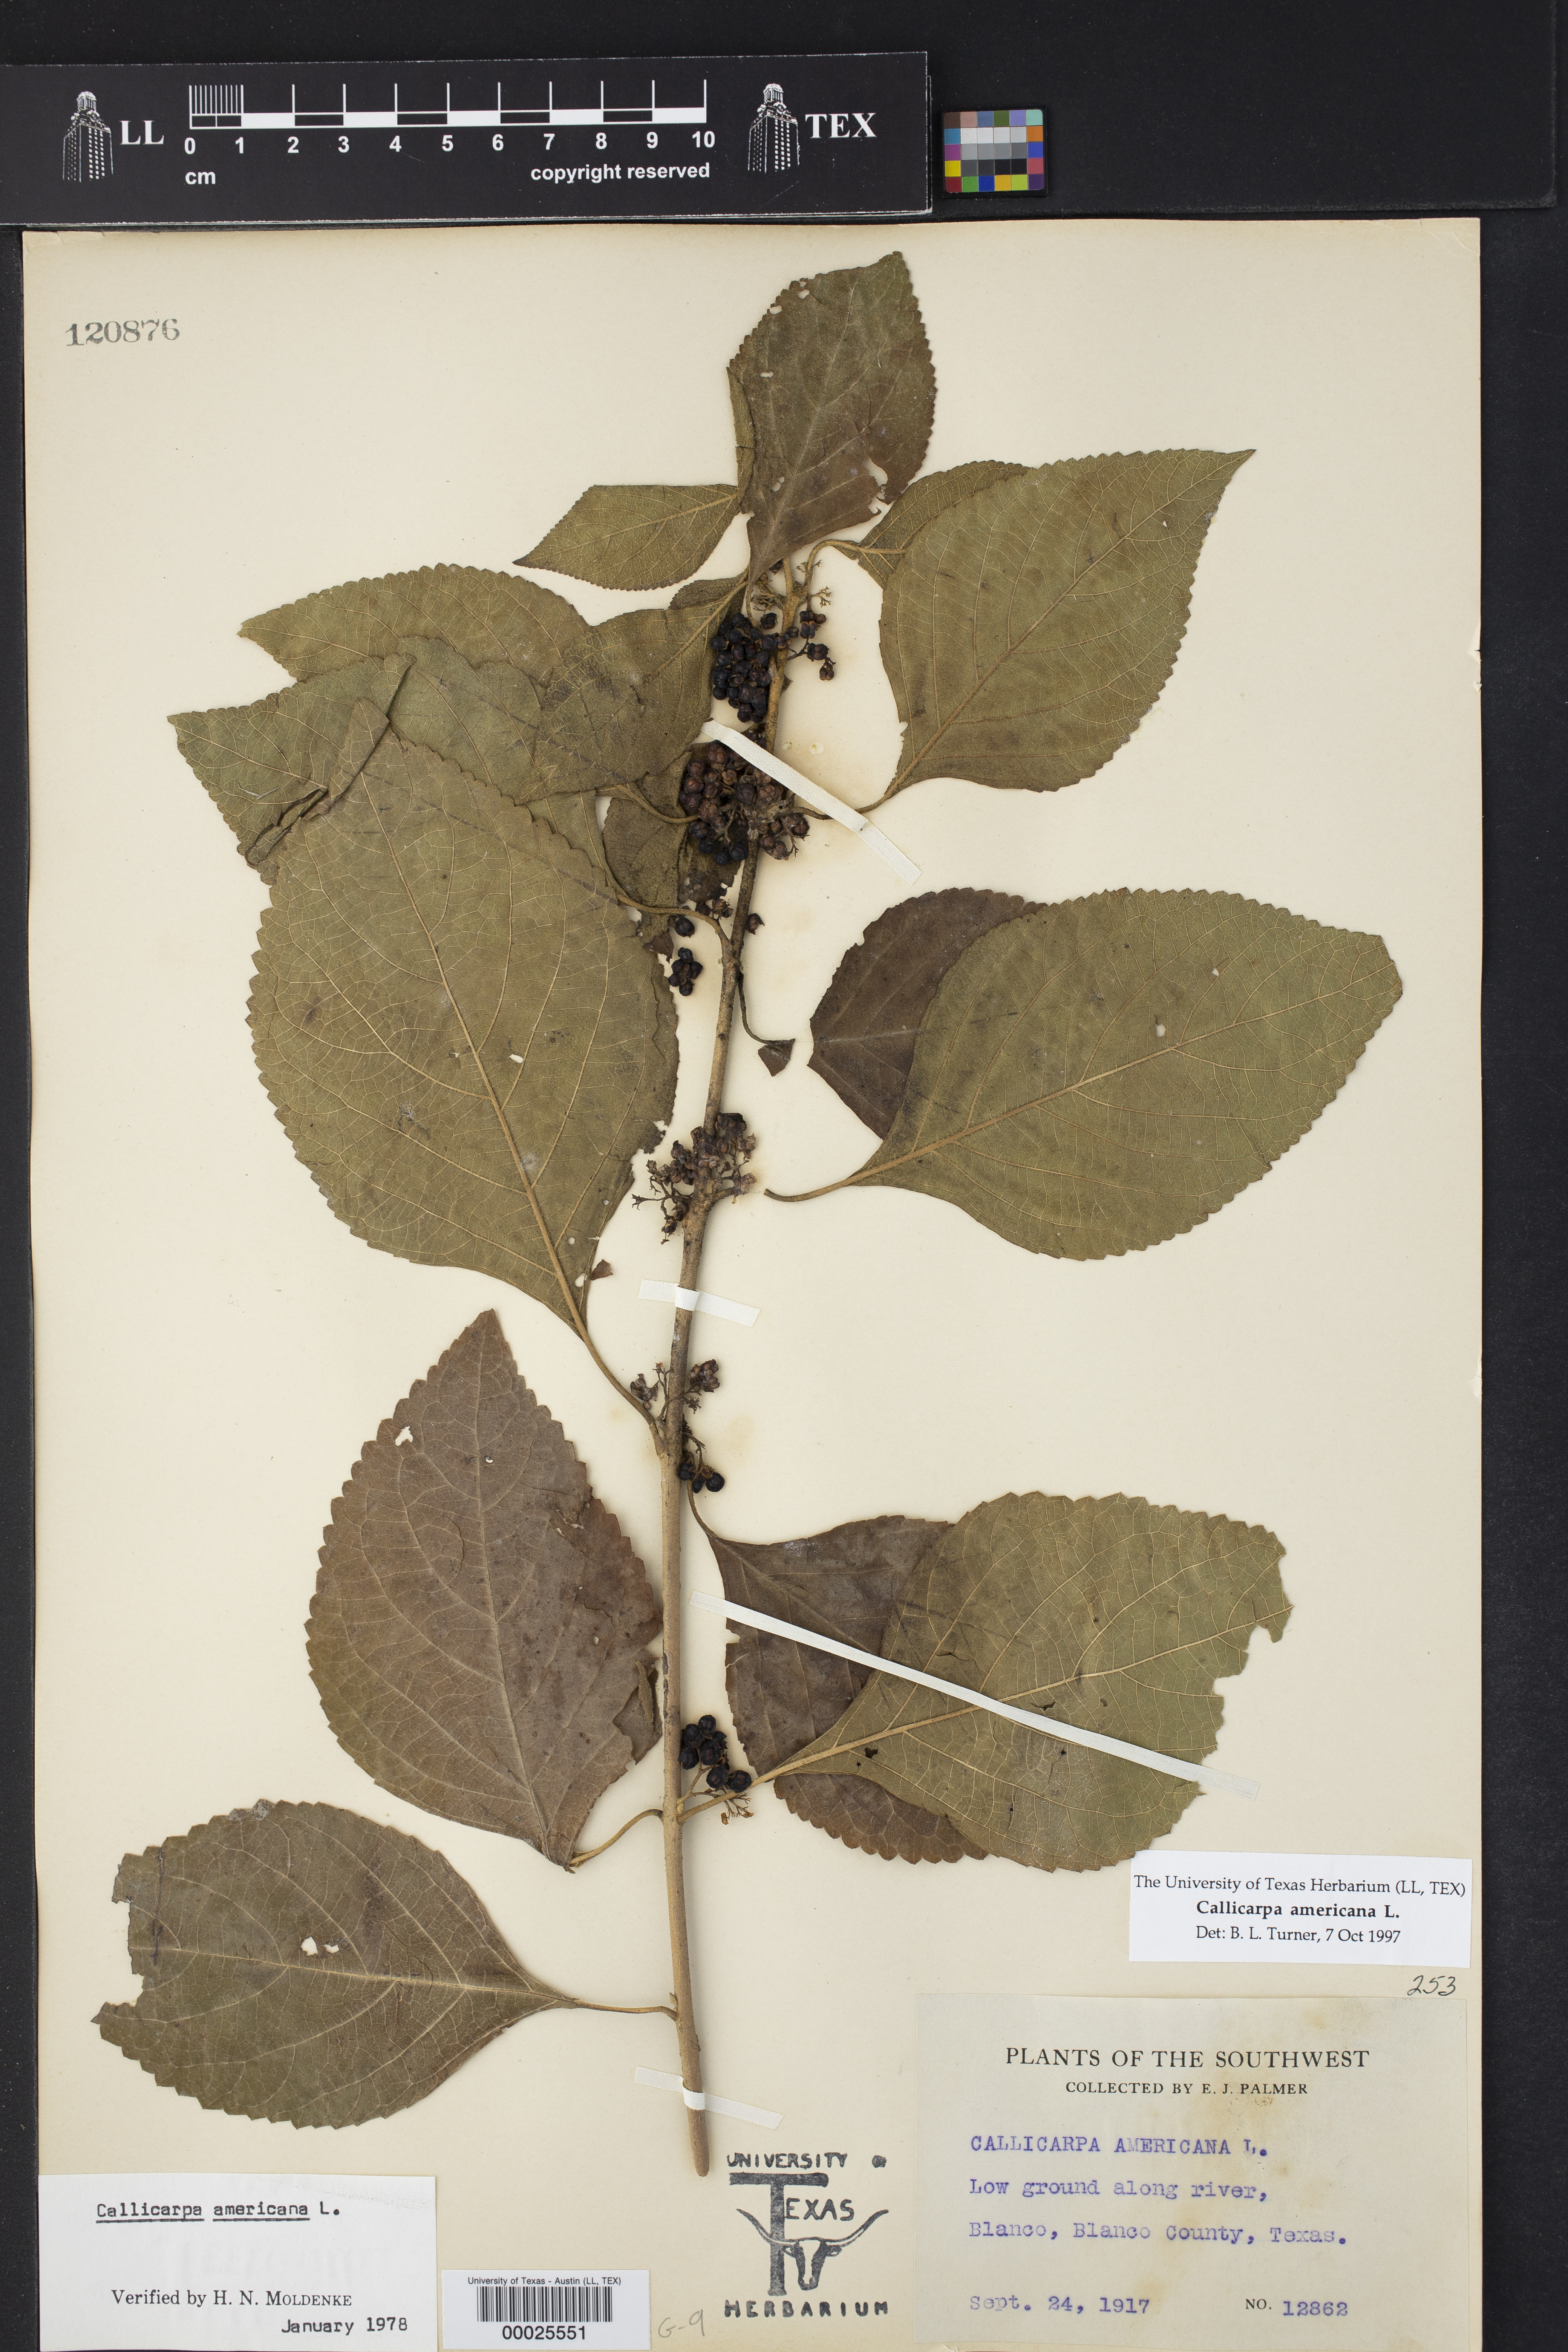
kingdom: Plantae
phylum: Tracheophyta
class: Magnoliopsida
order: Lamiales
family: Lamiaceae
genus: Callicarpa
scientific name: Callicarpa americana
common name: American beautyberry
